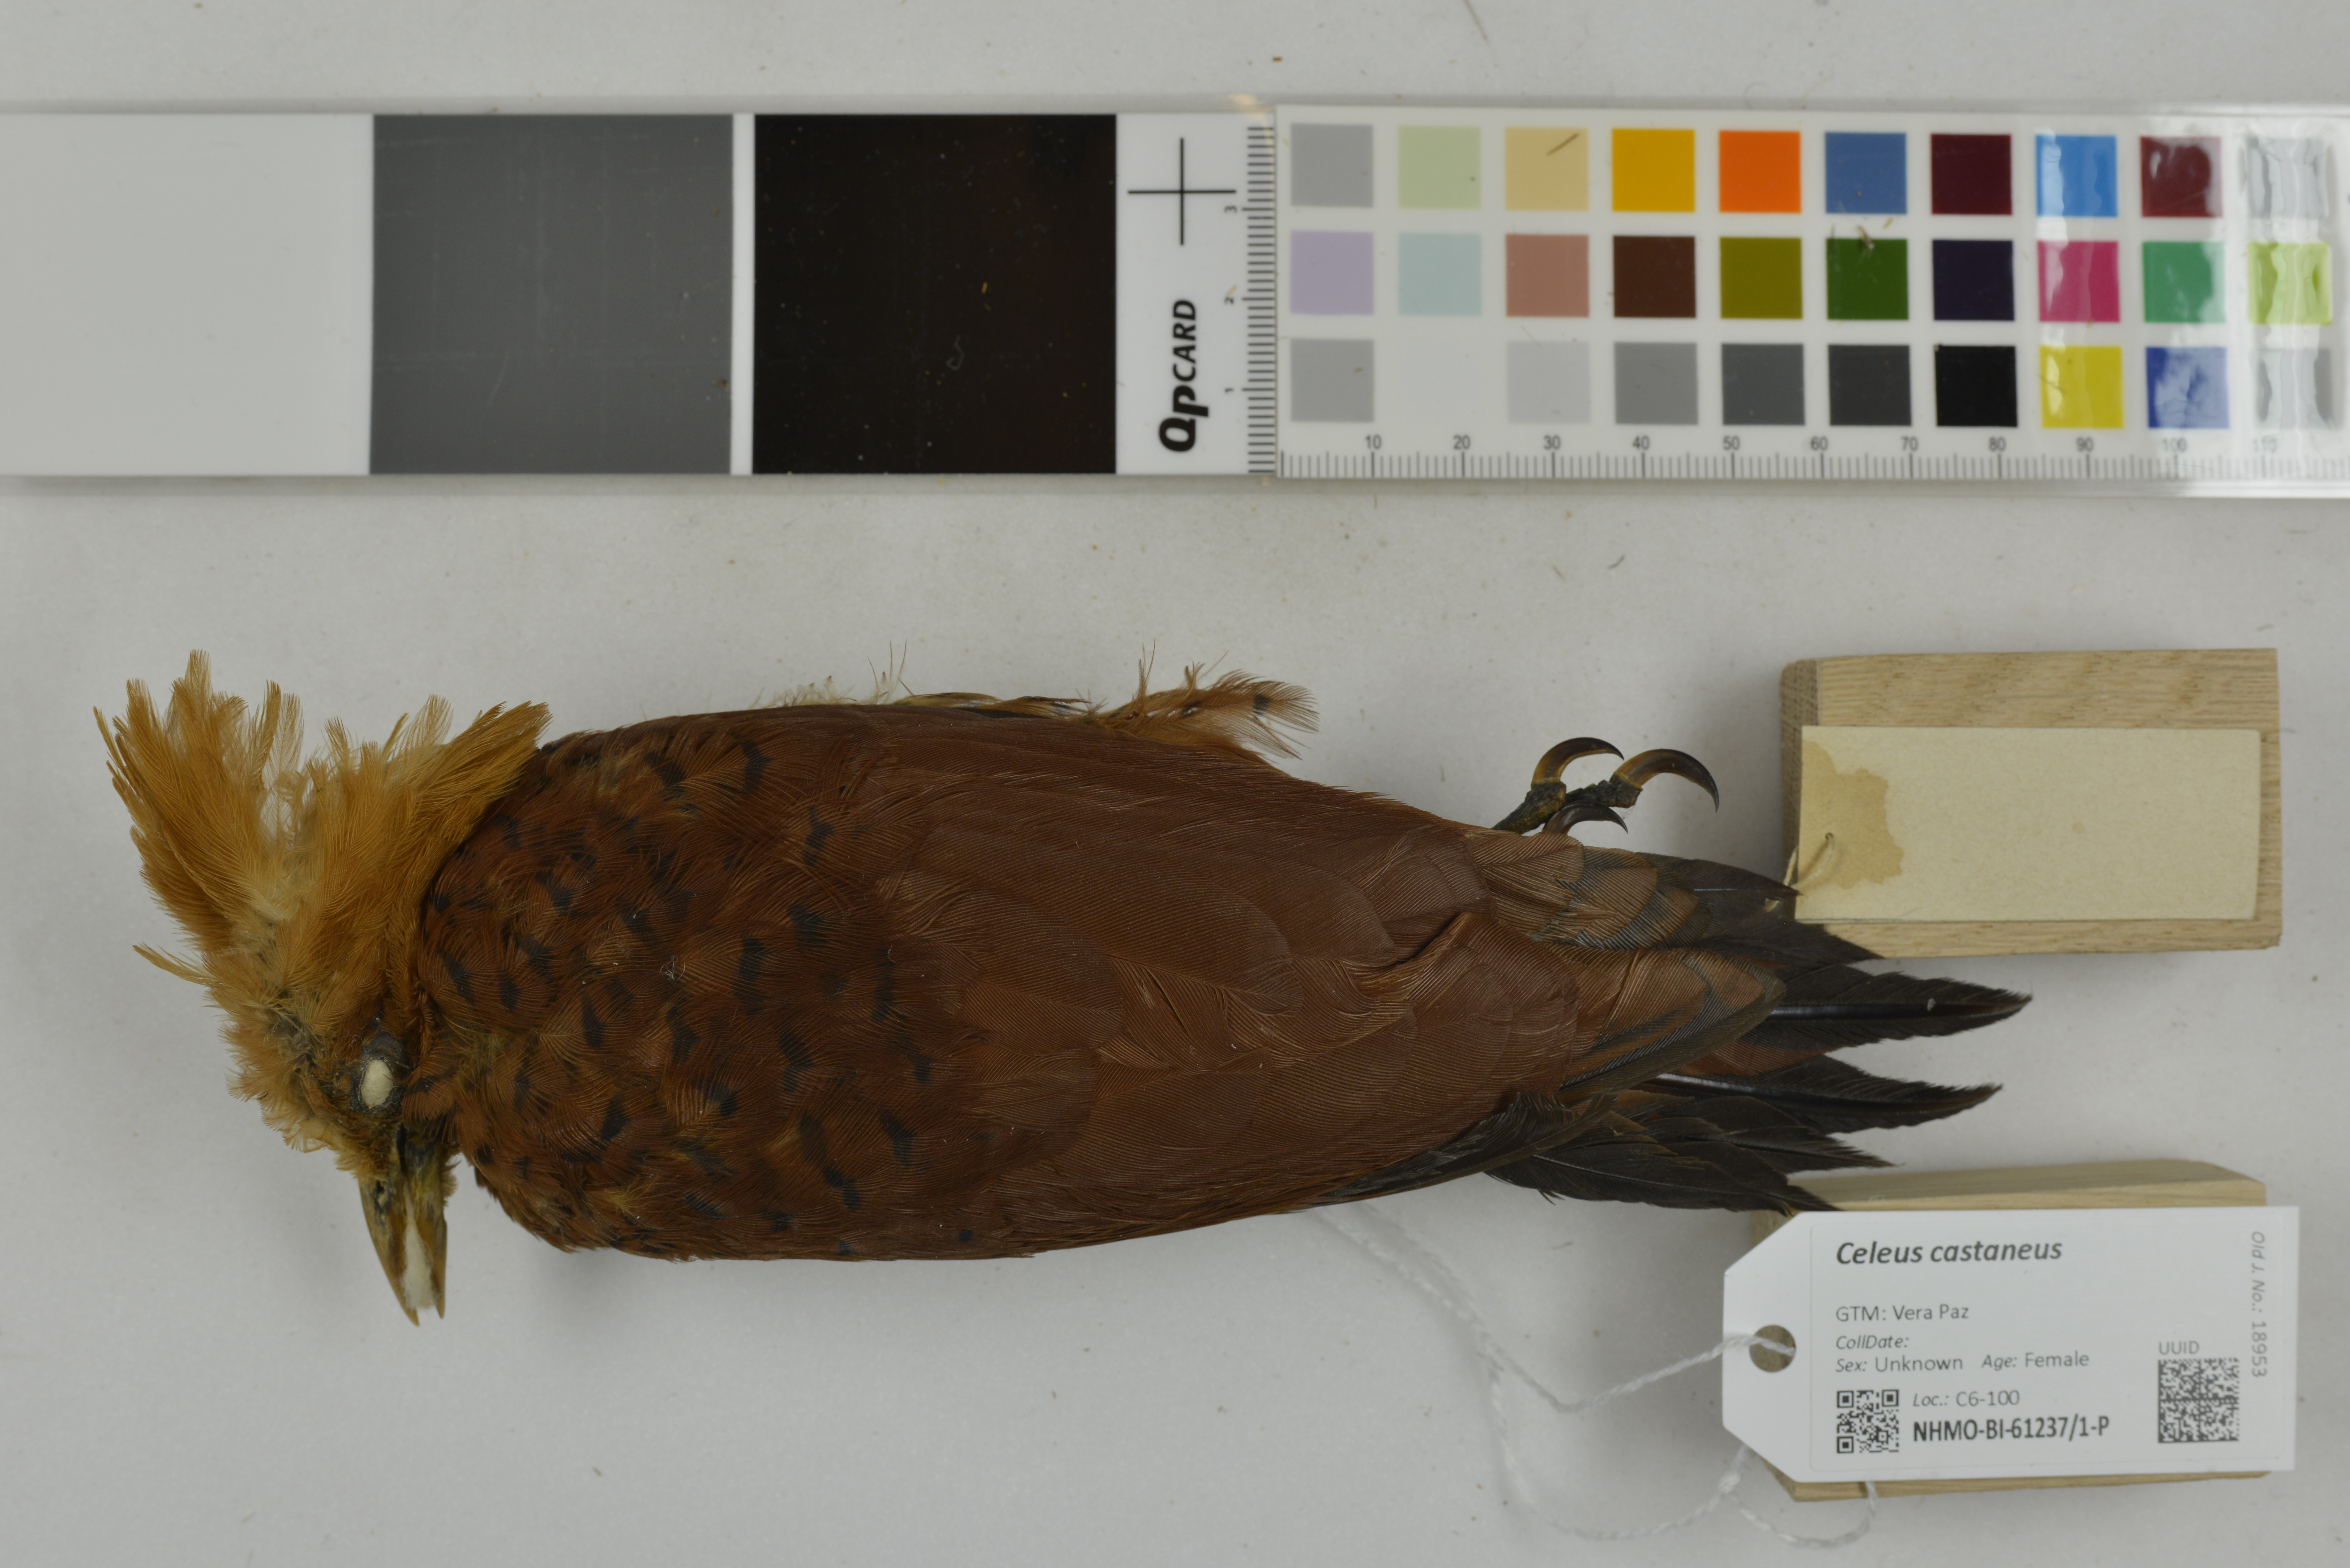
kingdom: Animalia
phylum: Chordata
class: Aves
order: Piciformes
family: Picidae
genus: Celeus
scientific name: Celeus castaneus
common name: Chestnut-colored woodpecker
